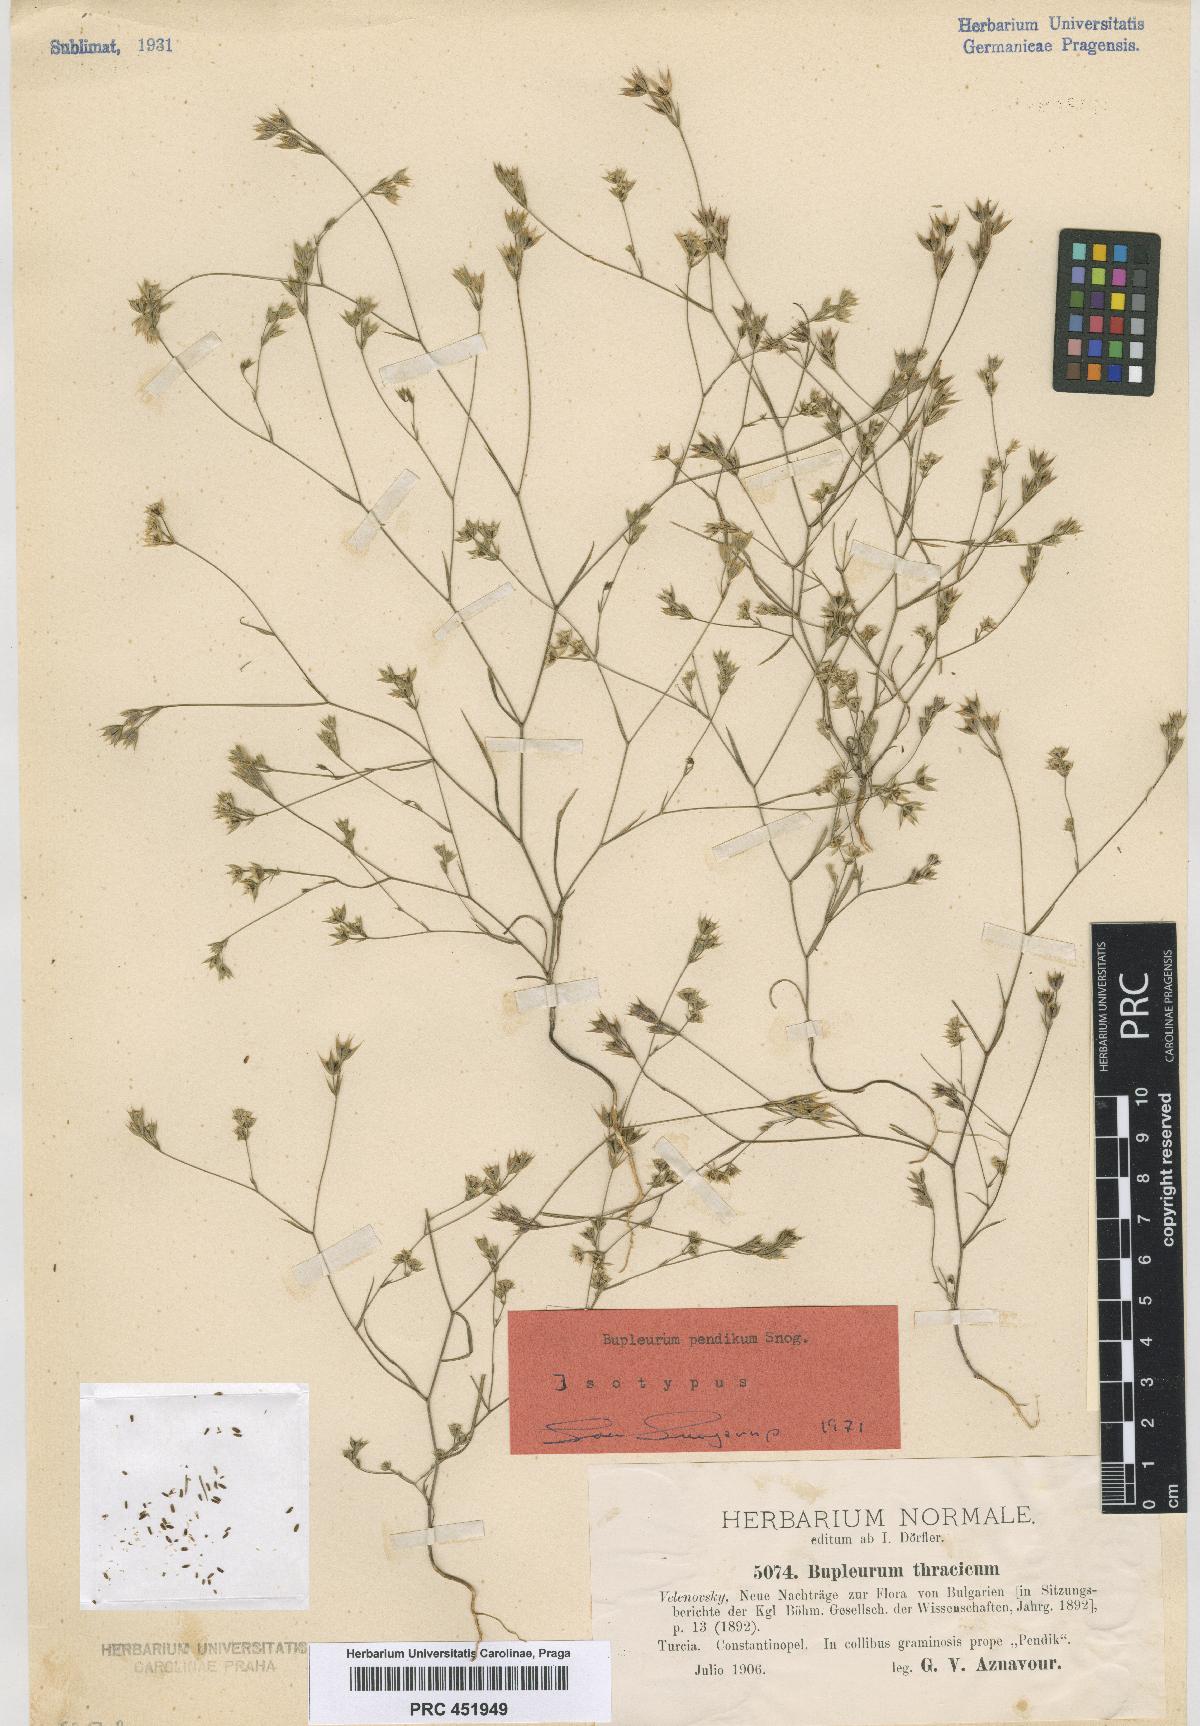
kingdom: Plantae
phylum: Tracheophyta
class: Magnoliopsida
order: Apiales
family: Apiaceae
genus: Bupleurum
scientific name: Bupleurum pendikum
